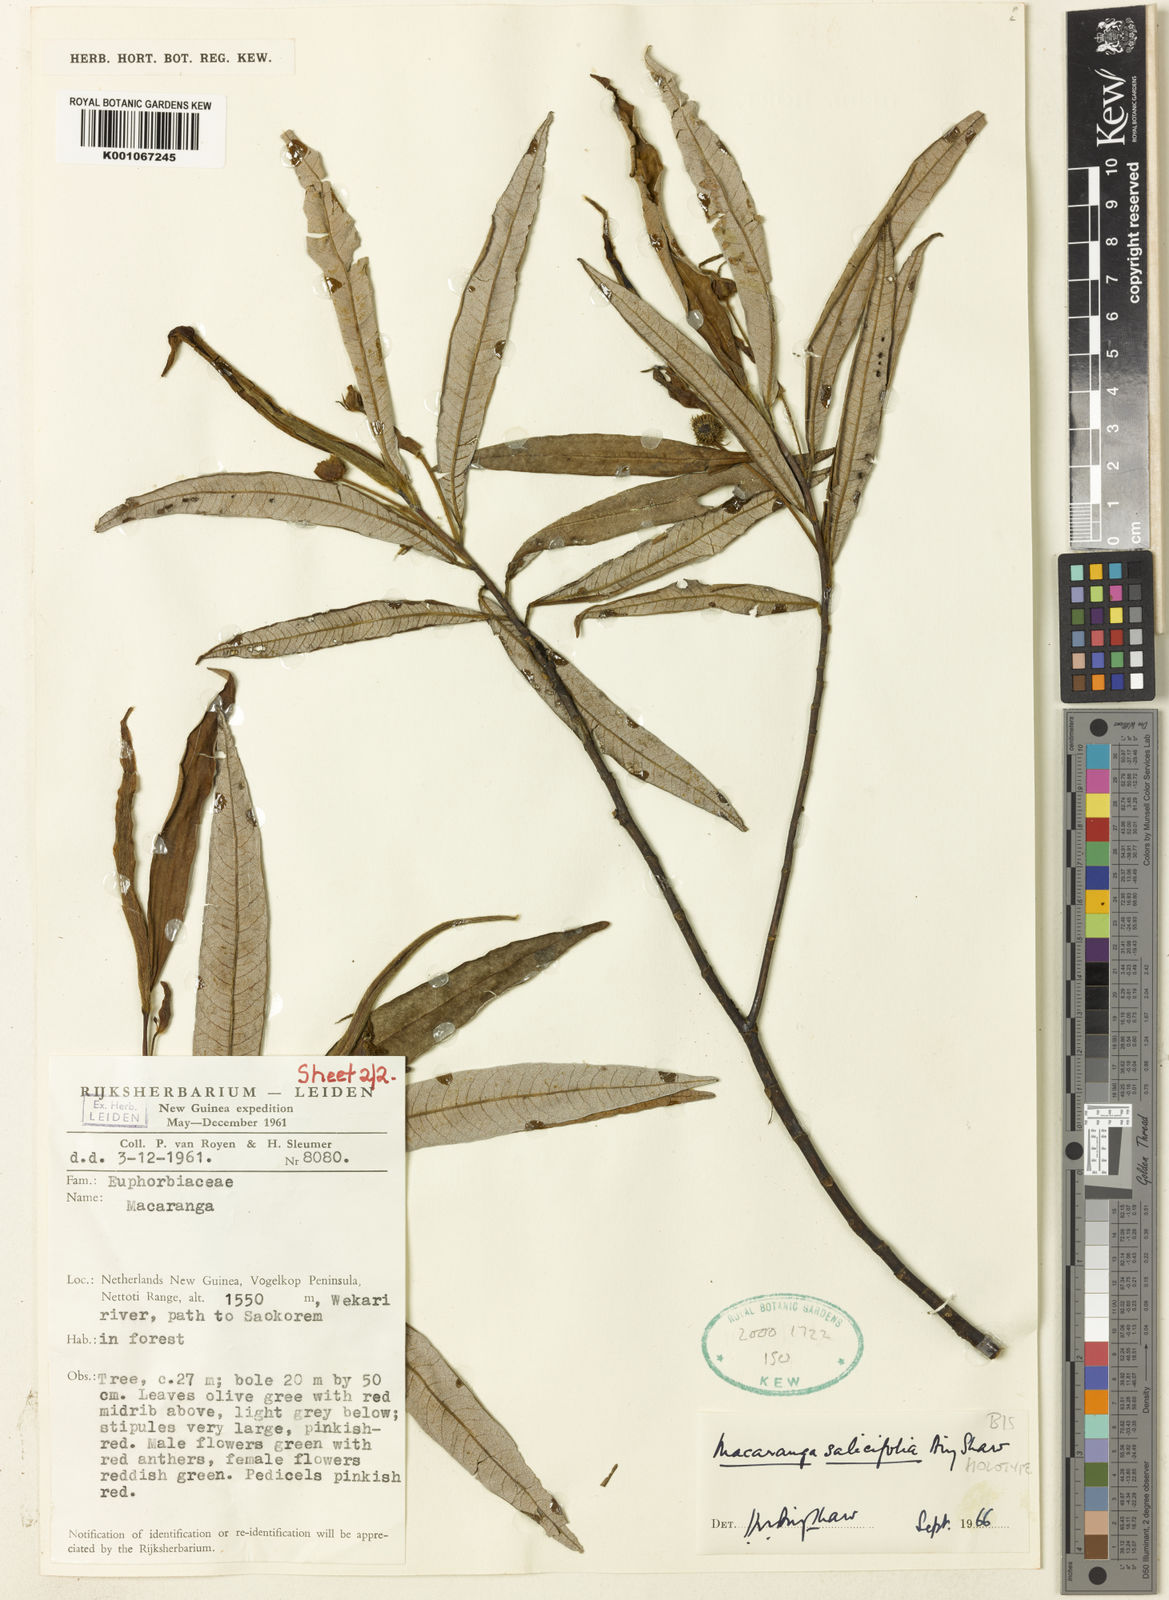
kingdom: Plantae
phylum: Tracheophyta
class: Magnoliopsida
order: Malpighiales
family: Euphorbiaceae
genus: Macaranga
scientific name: Macaranga salicifolia
